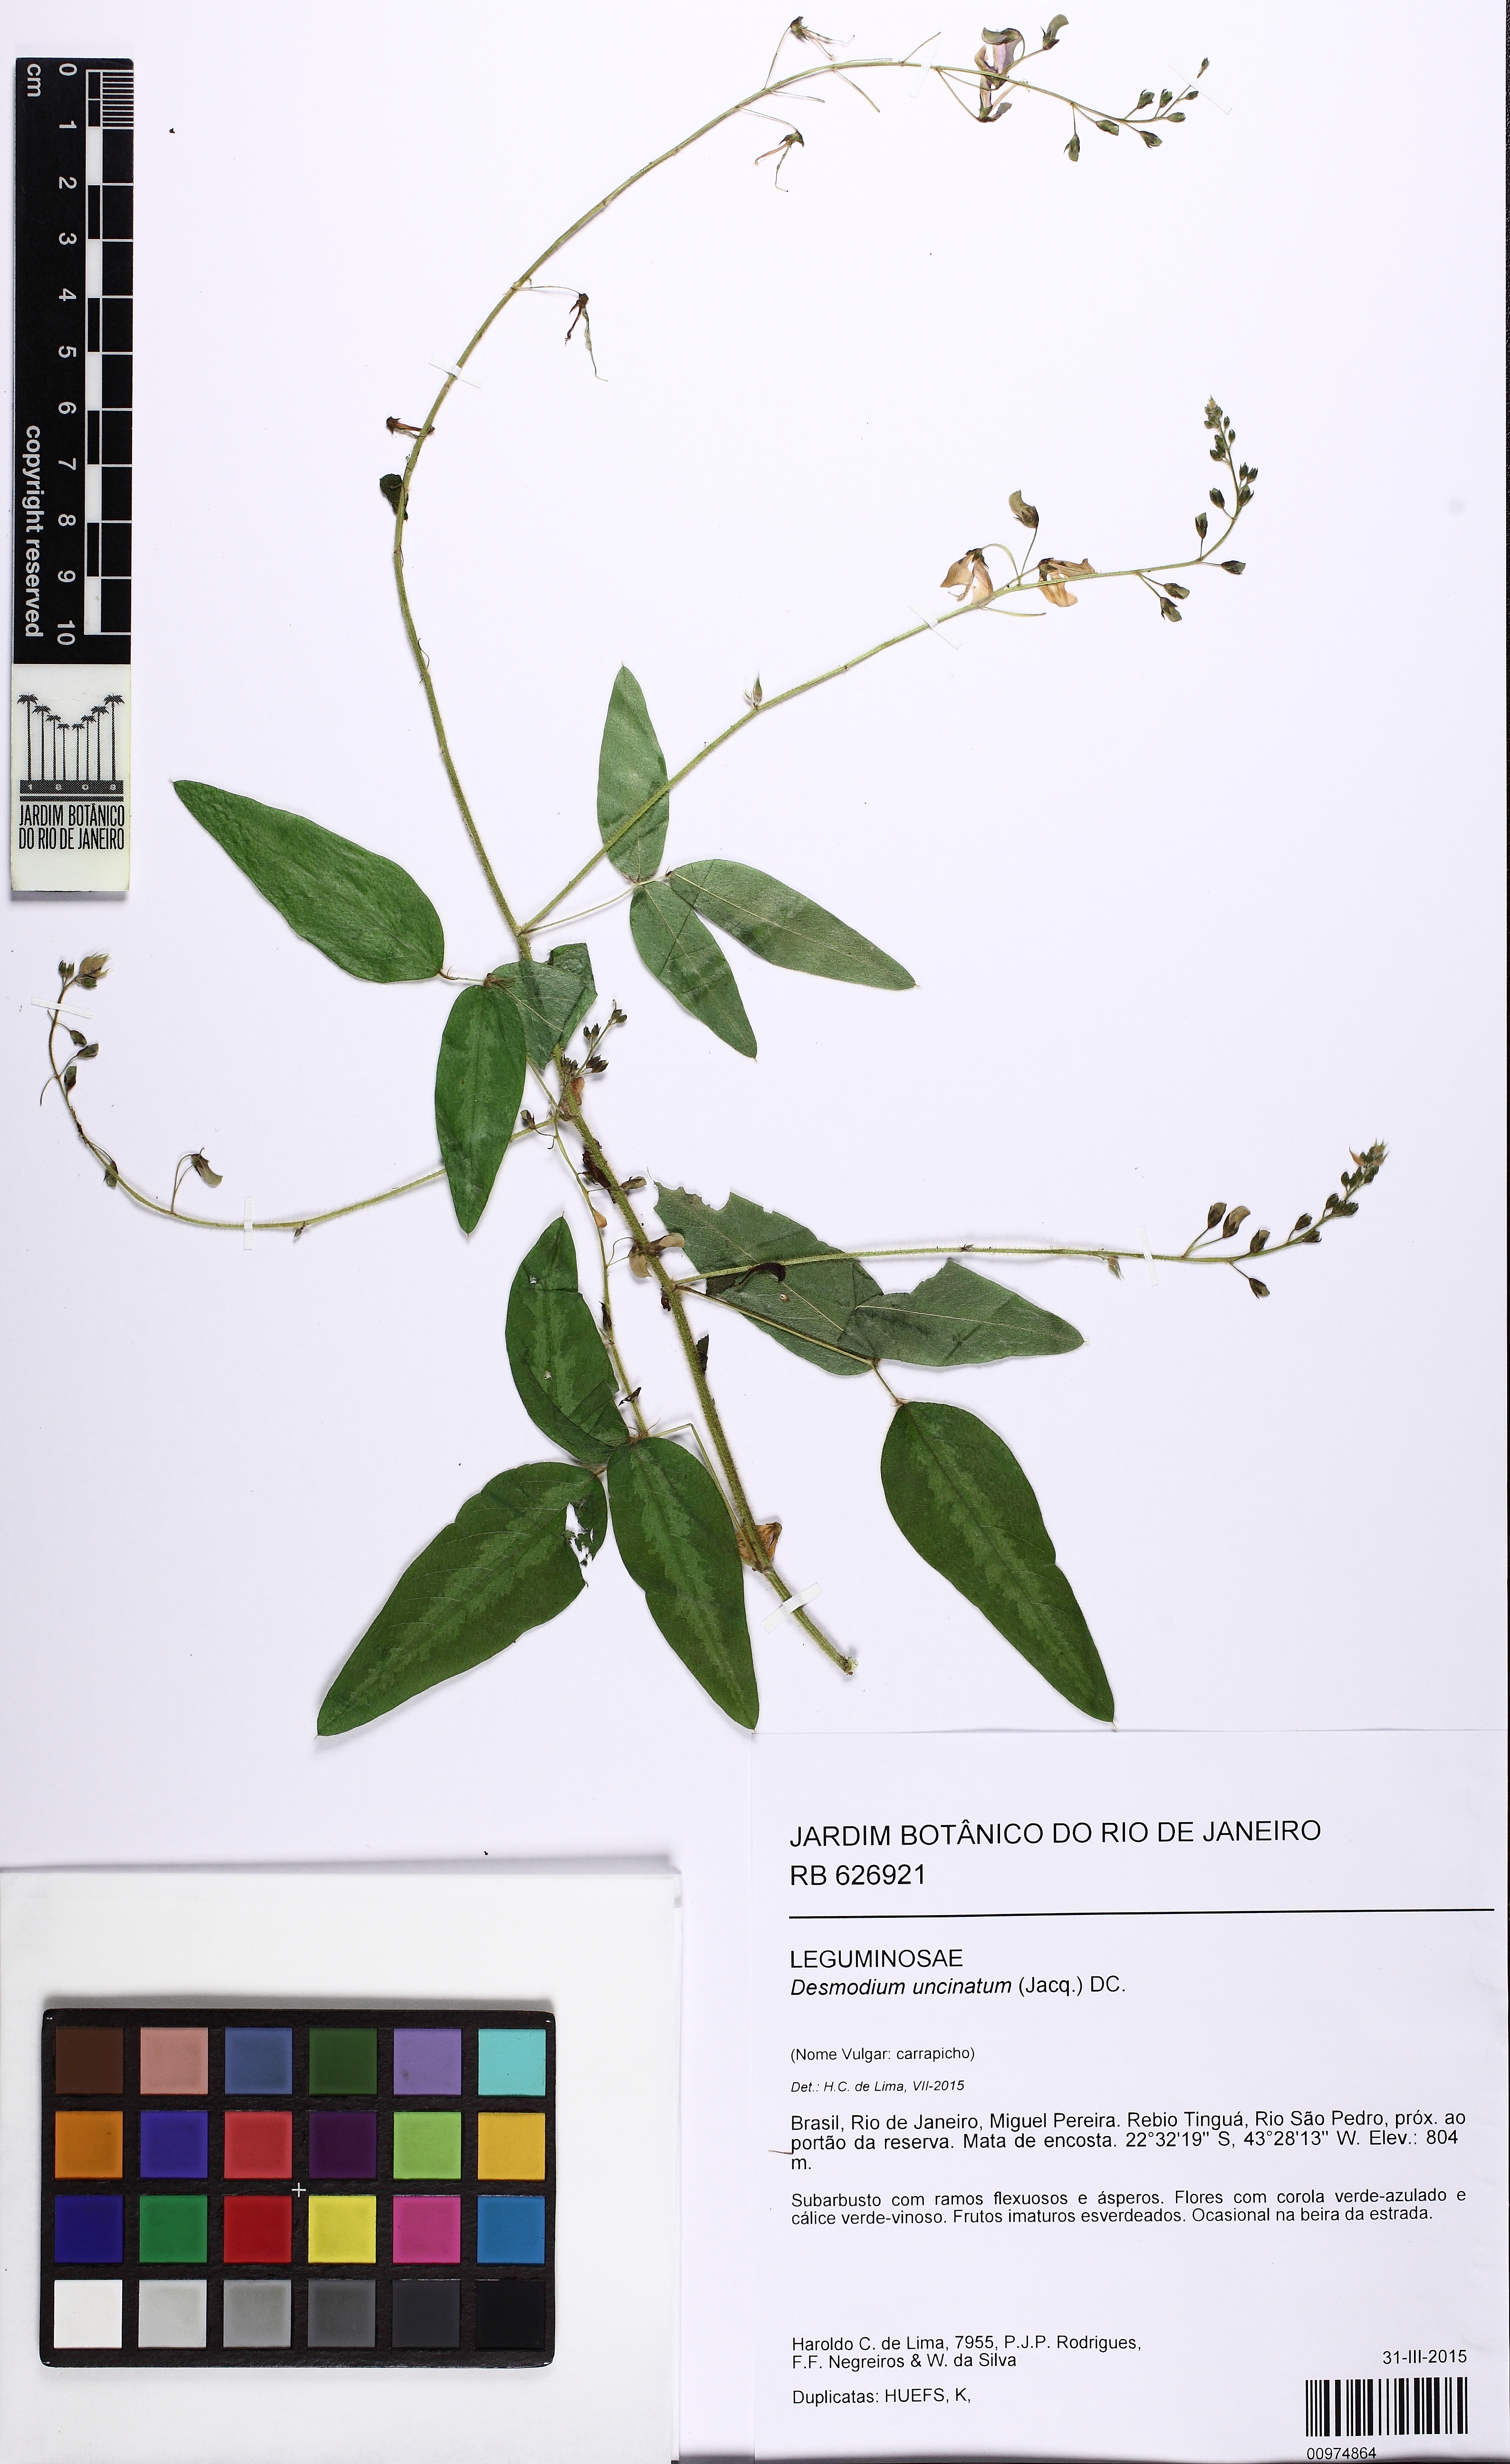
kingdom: Plantae
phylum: Tracheophyta
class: Magnoliopsida
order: Fabales
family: Fabaceae
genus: Desmodium
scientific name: Desmodium uncinatum
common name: Silverleaf desmodium
